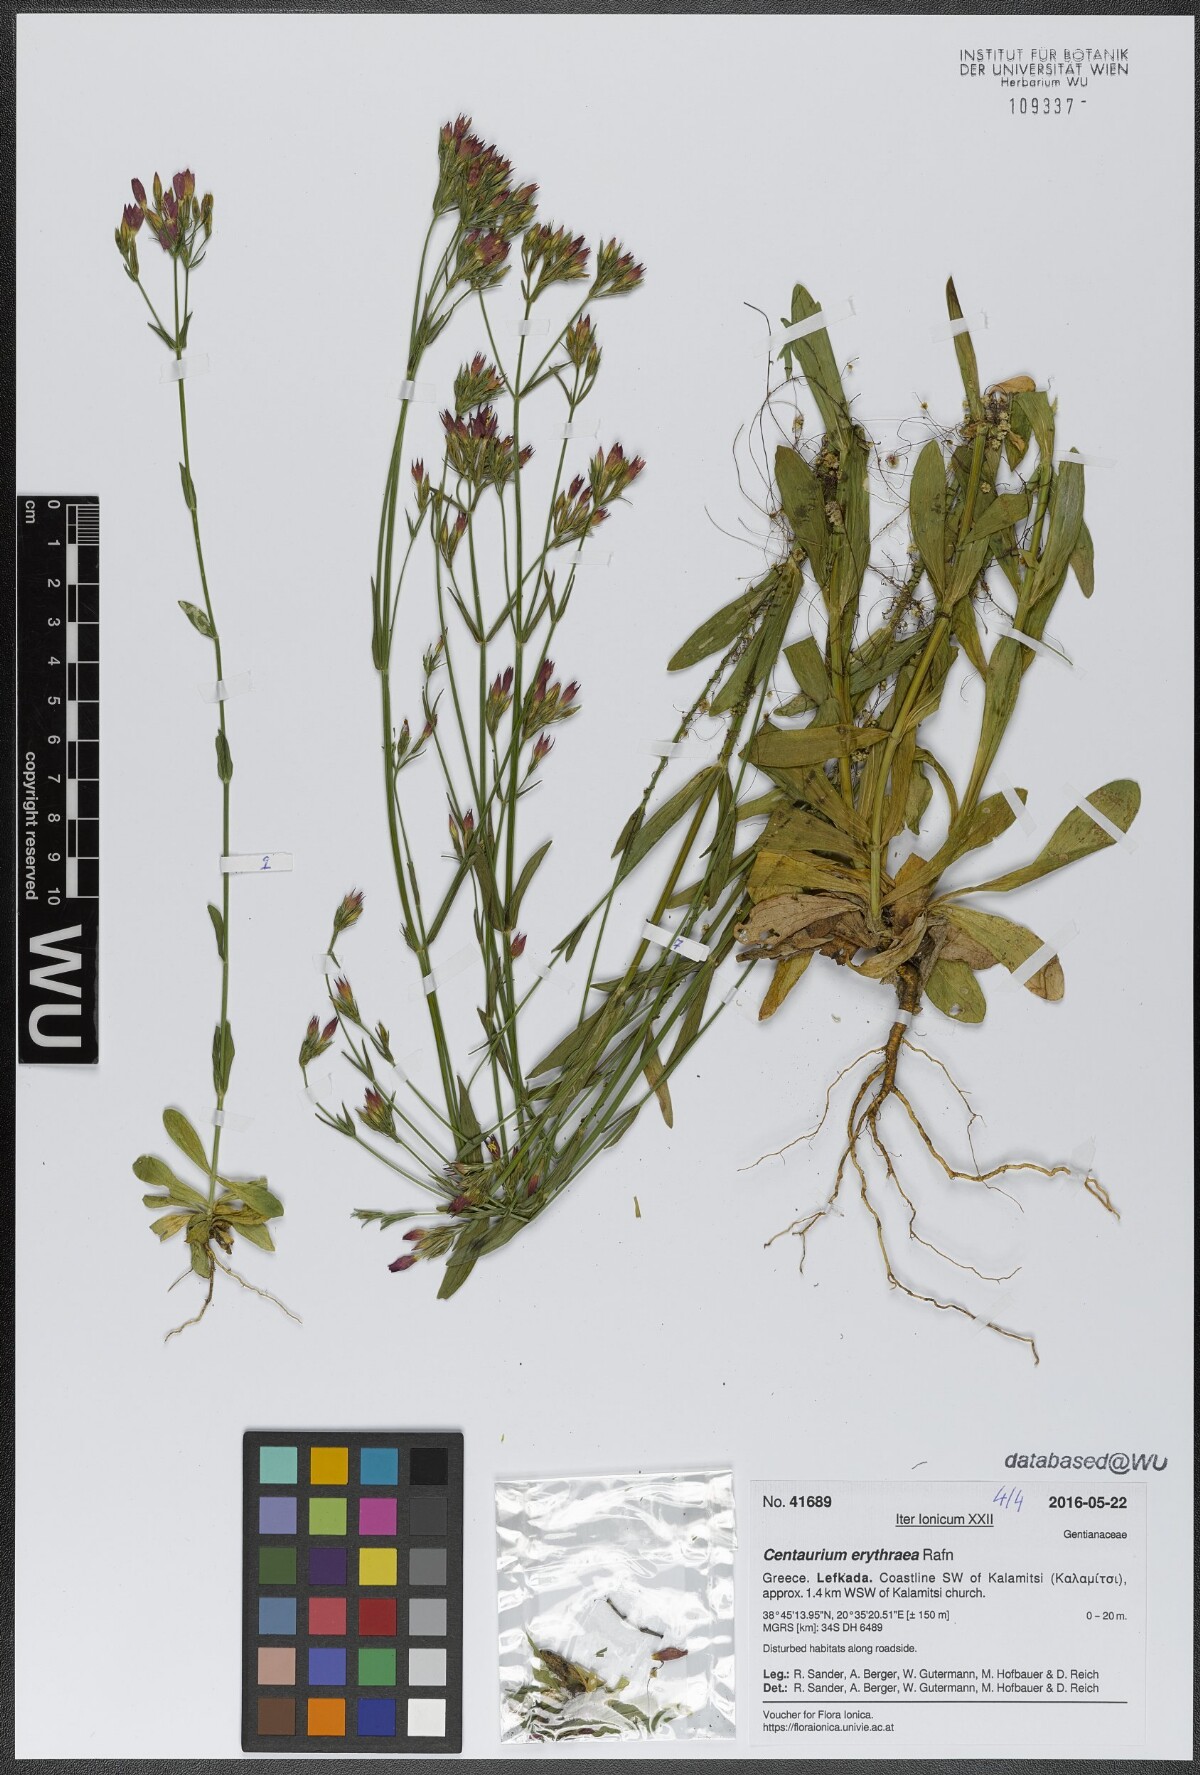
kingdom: Plantae
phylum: Tracheophyta
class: Magnoliopsida
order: Gentianales
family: Gentianaceae
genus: Centaurium
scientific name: Centaurium erythraea
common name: Common centaury
